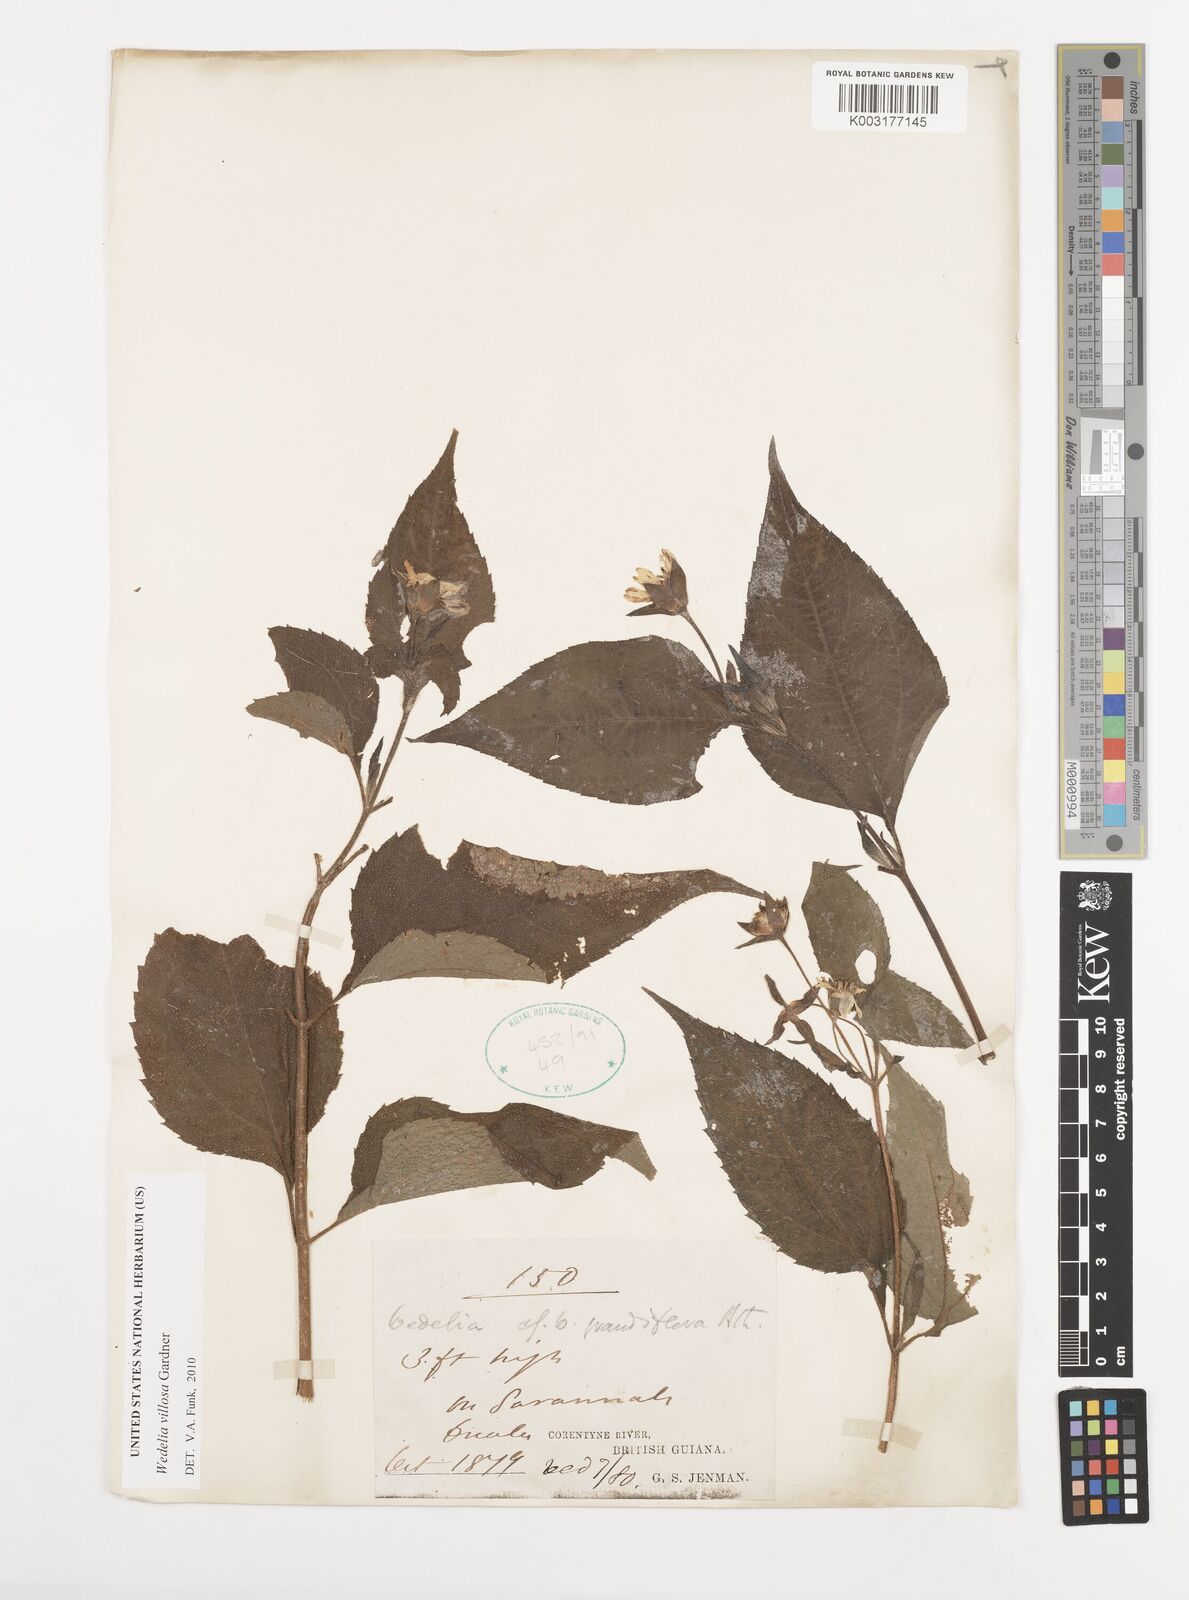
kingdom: Plantae
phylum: Tracheophyta
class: Magnoliopsida
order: Asterales
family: Asteraceae
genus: Wedelia
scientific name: Wedelia villosa
